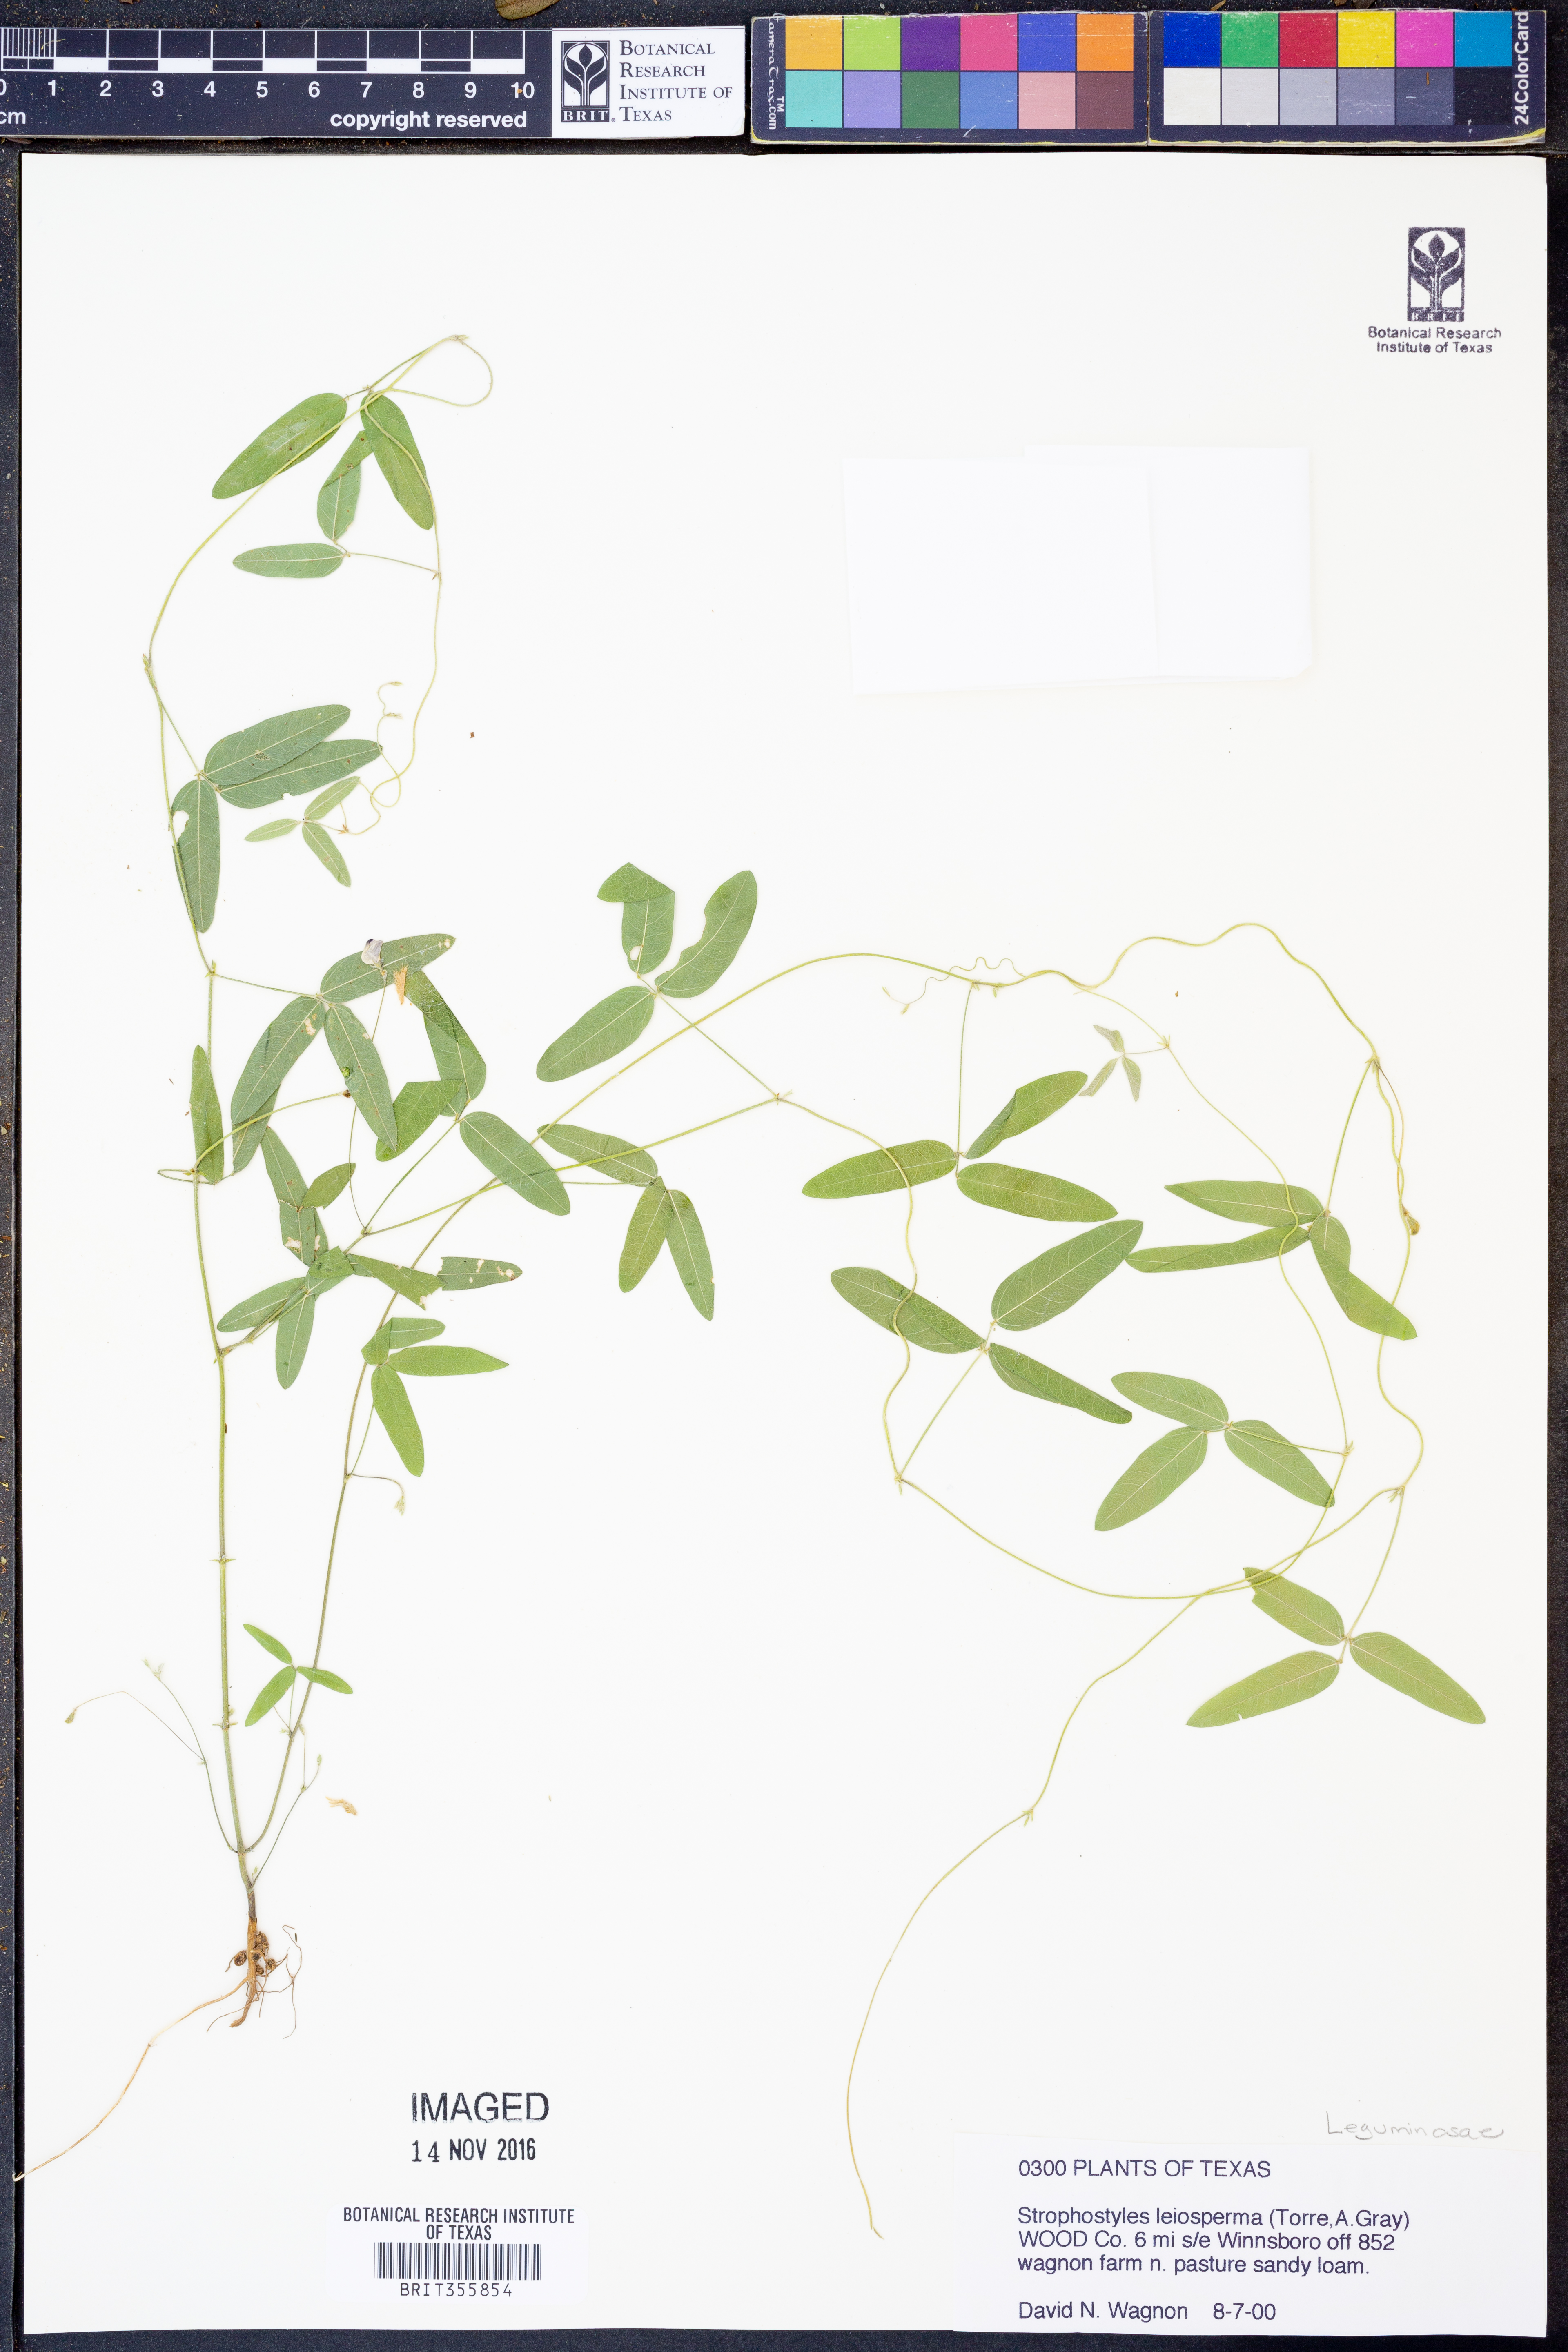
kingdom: Plantae
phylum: Tracheophyta
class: Magnoliopsida
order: Fabales
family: Fabaceae
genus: Strophostyles
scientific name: Strophostyles leiosperma
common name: Smooth-seed wild bean
